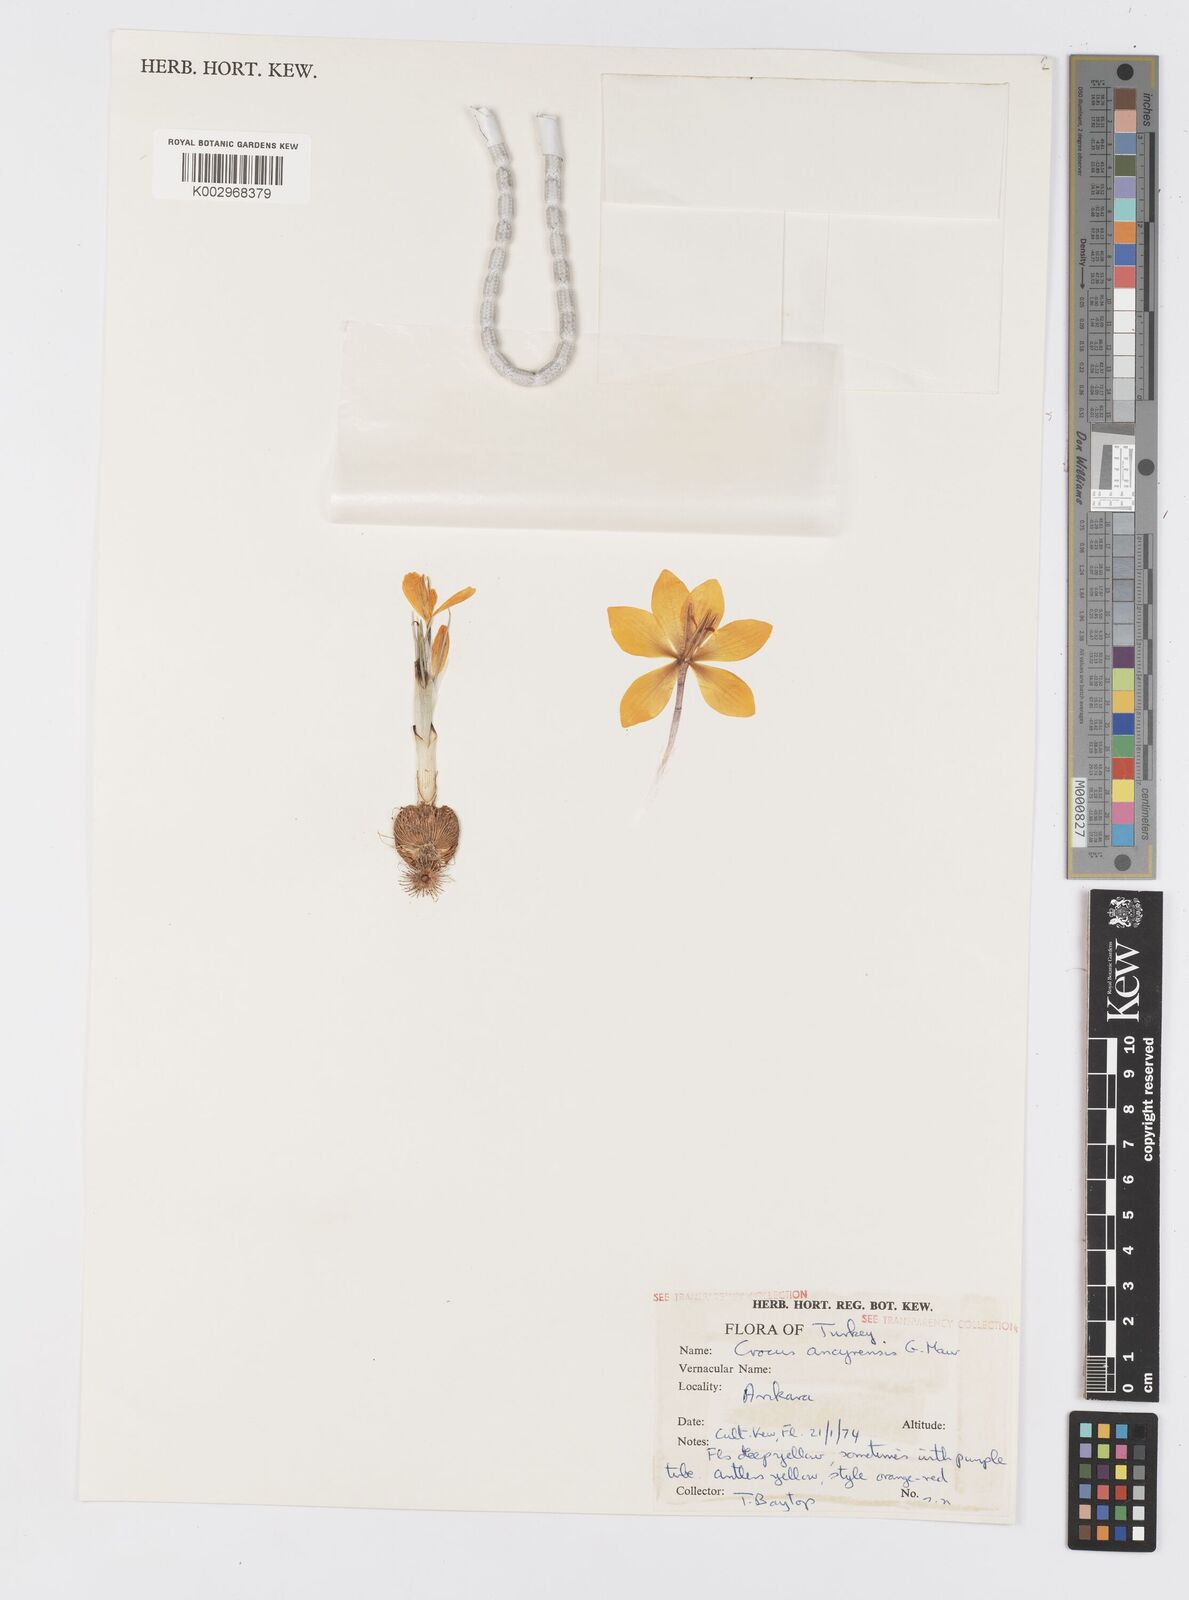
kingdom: Plantae
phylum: Tracheophyta
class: Liliopsida
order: Asparagales
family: Iridaceae
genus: Crocus
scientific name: Crocus ancyrensis
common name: Ankara crocus
